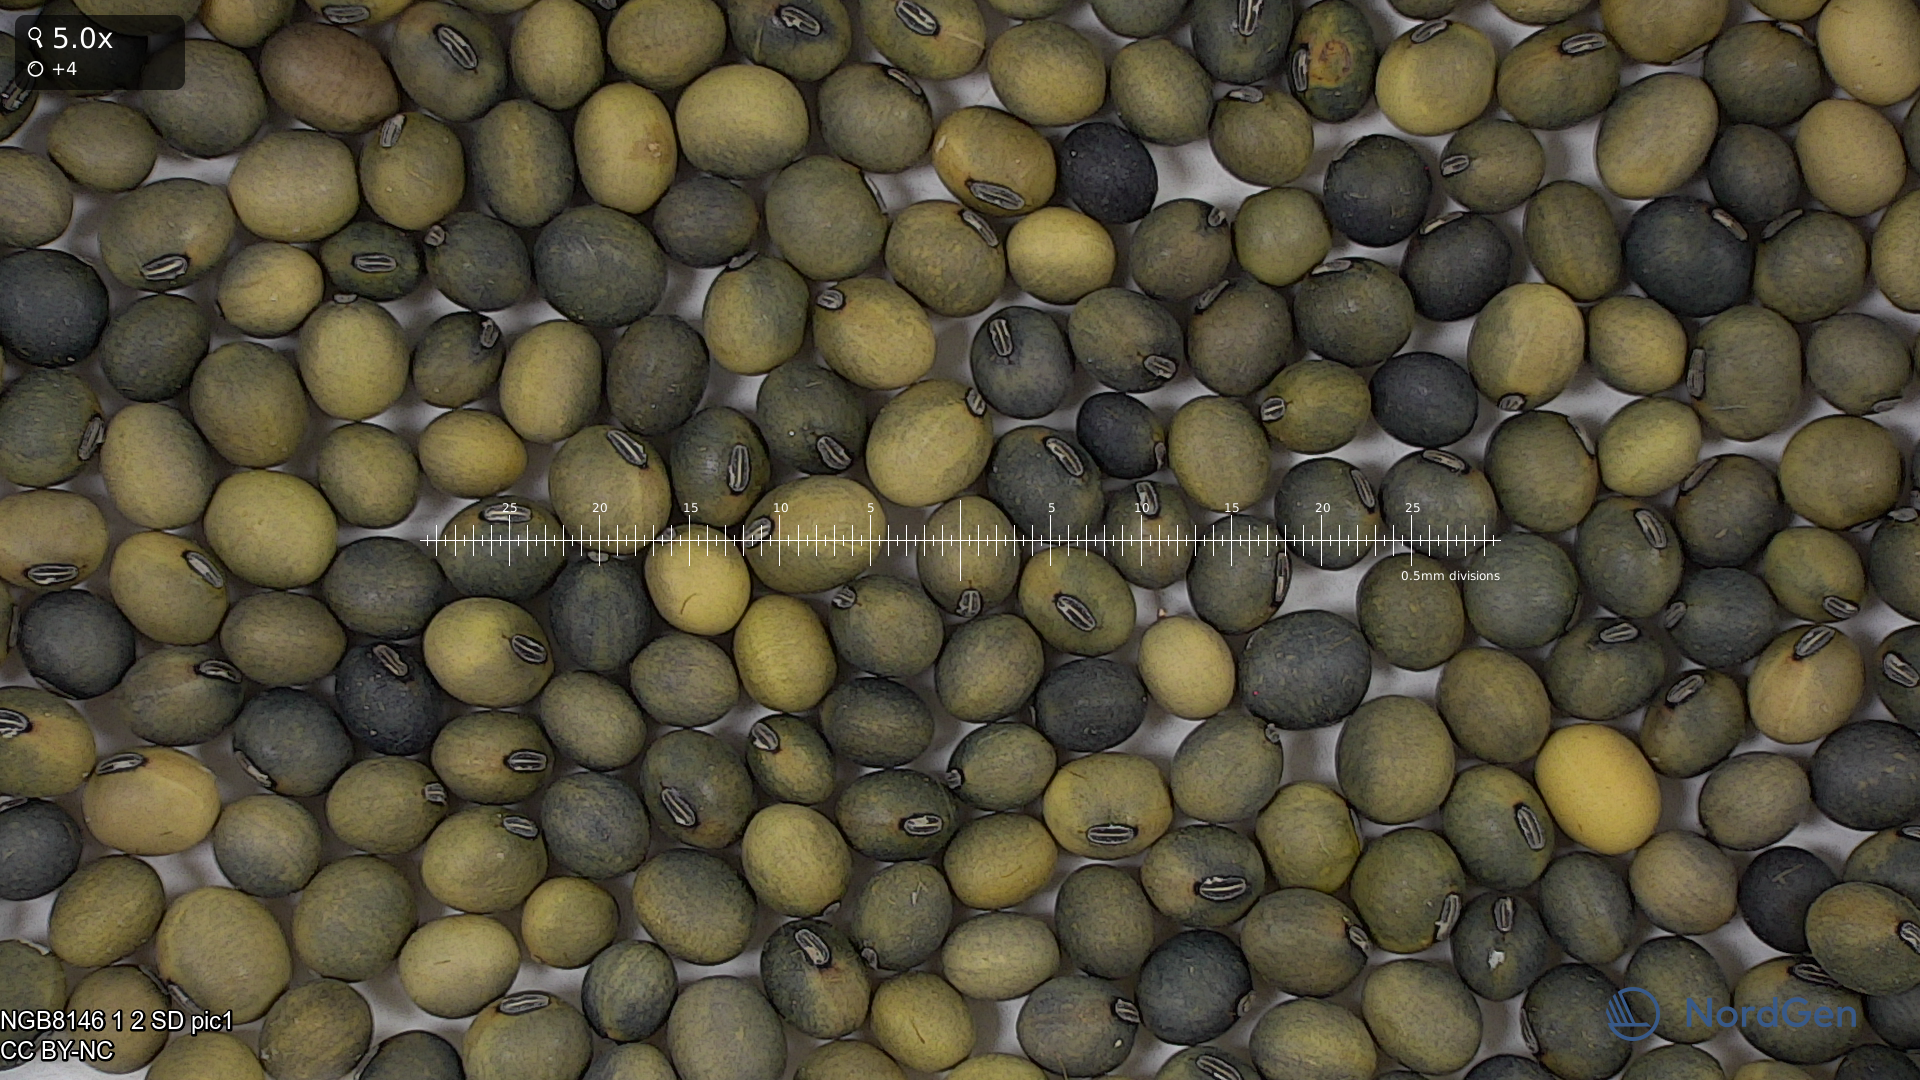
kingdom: Plantae
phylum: Tracheophyta
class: Magnoliopsida
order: Fabales
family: Fabaceae
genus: Glycine
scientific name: Glycine max
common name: Soya-bean
